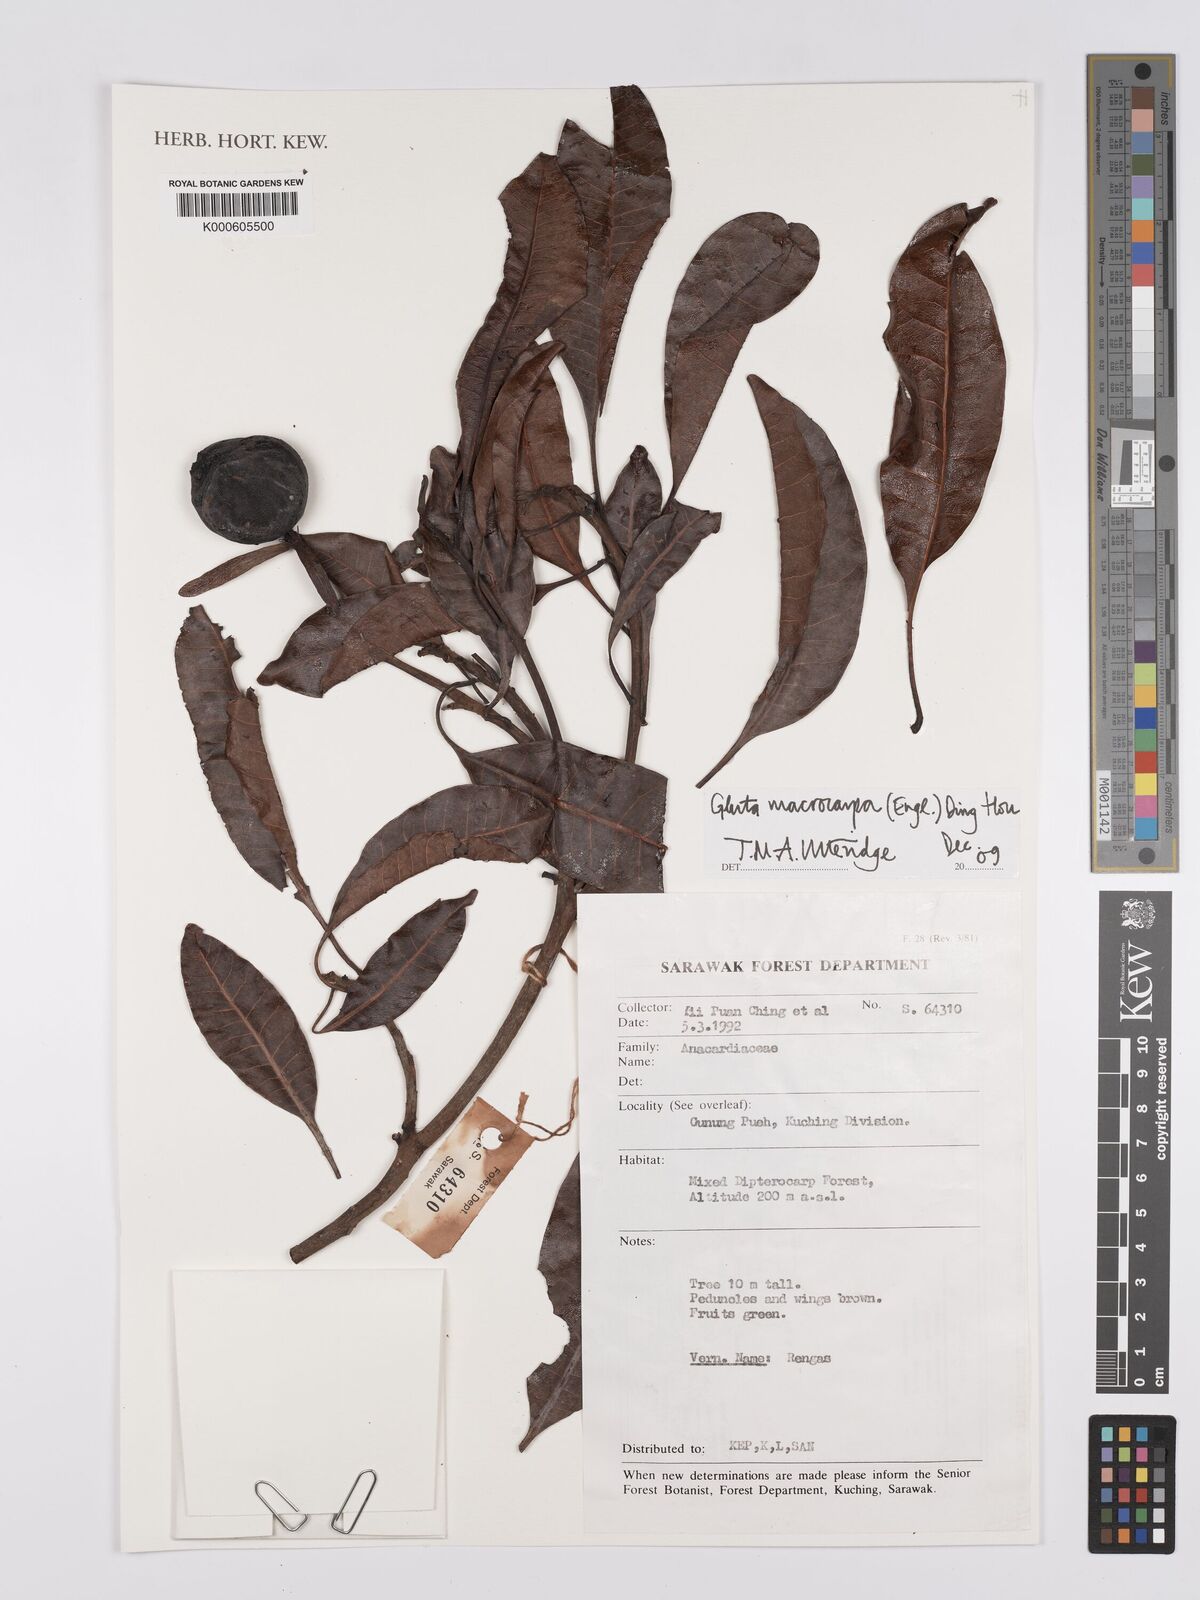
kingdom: Plantae
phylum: Tracheophyta
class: Magnoliopsida
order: Sapindales
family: Anacardiaceae
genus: Gluta
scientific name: Gluta macrocarpa
